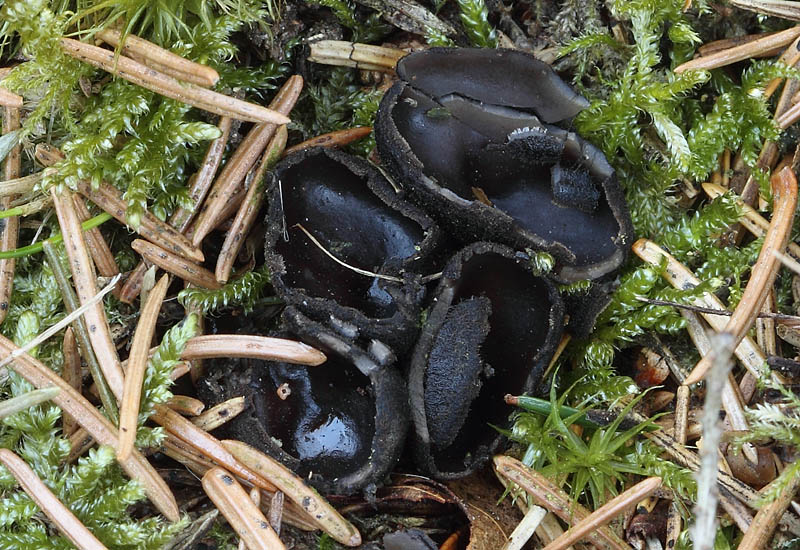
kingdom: Fungi
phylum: Ascomycota
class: Pezizomycetes
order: Pezizales
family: Sarcosomataceae
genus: Pseudoplectania
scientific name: Pseudoplectania nigrella
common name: almindelig sortbæger
